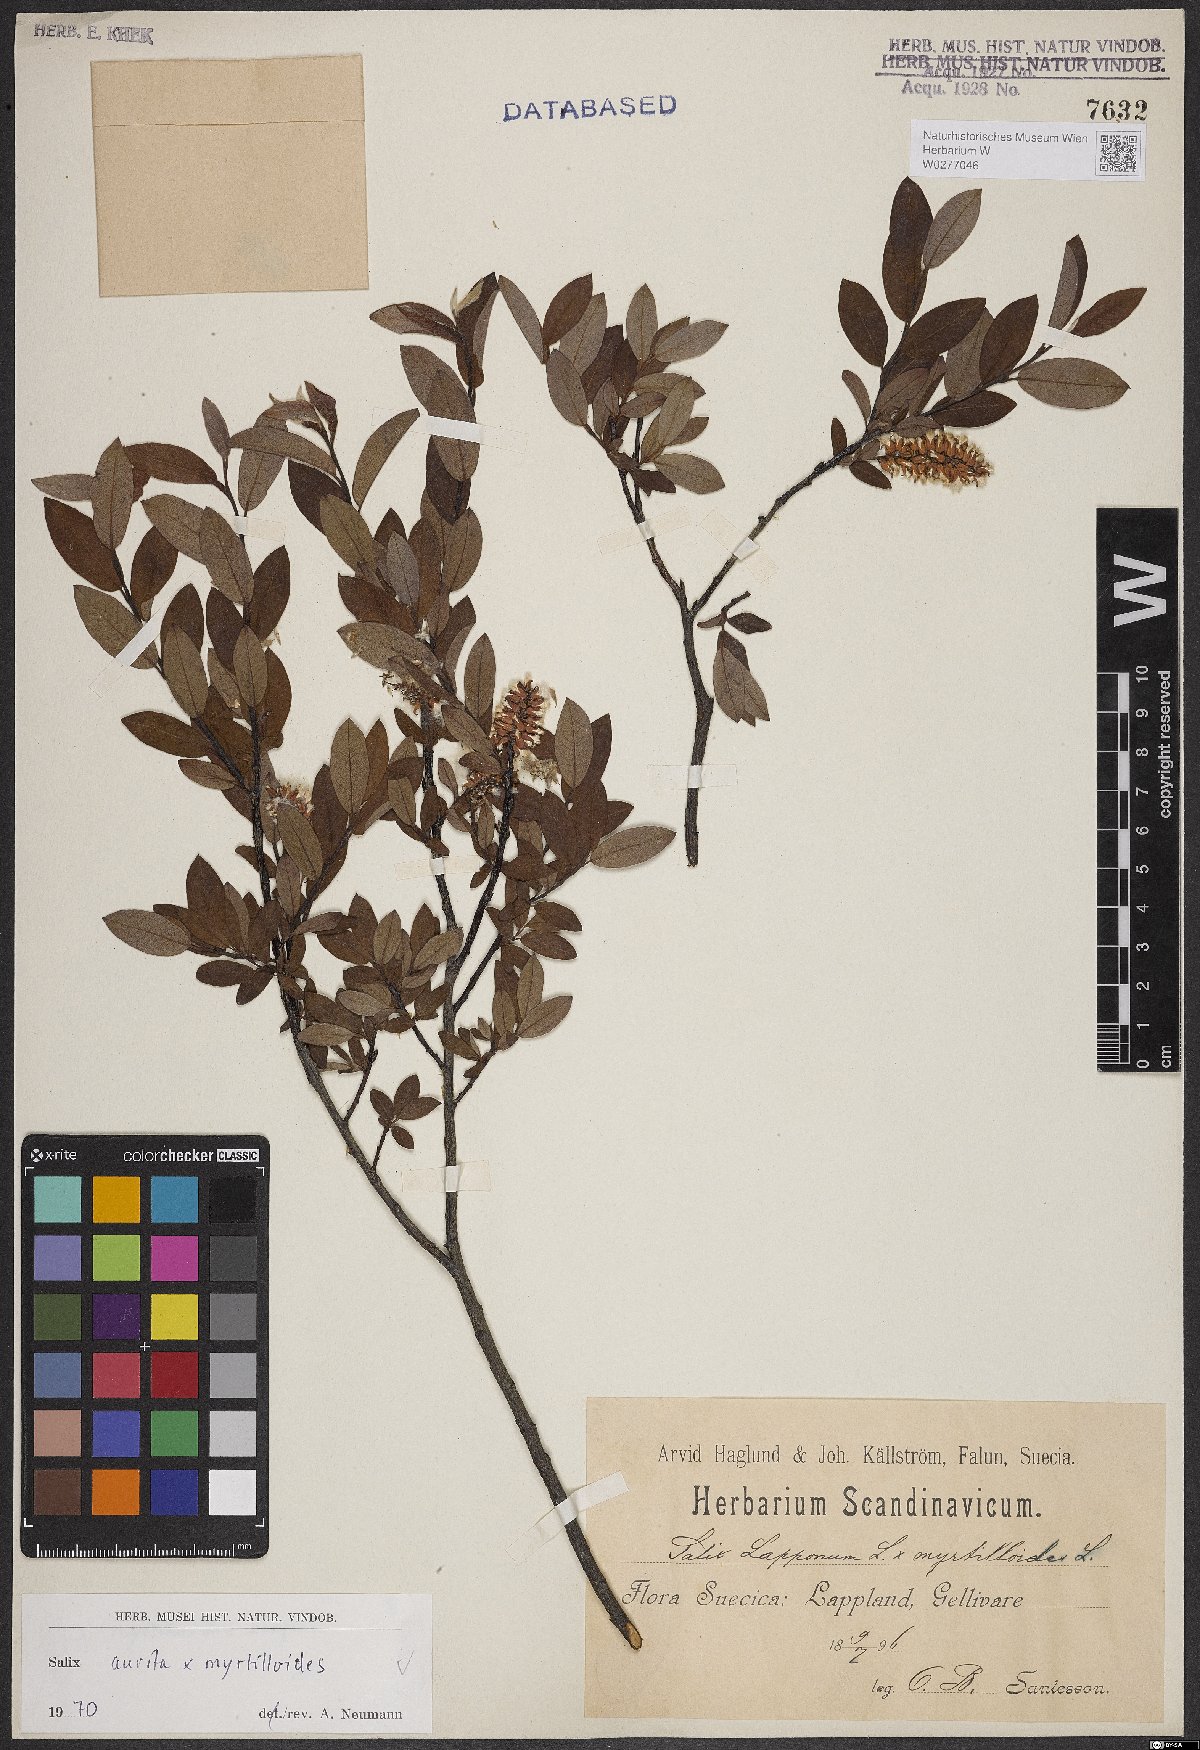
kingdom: Plantae
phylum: Tracheophyta
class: Magnoliopsida
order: Malpighiales
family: Salicaceae
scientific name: Salicaceae
